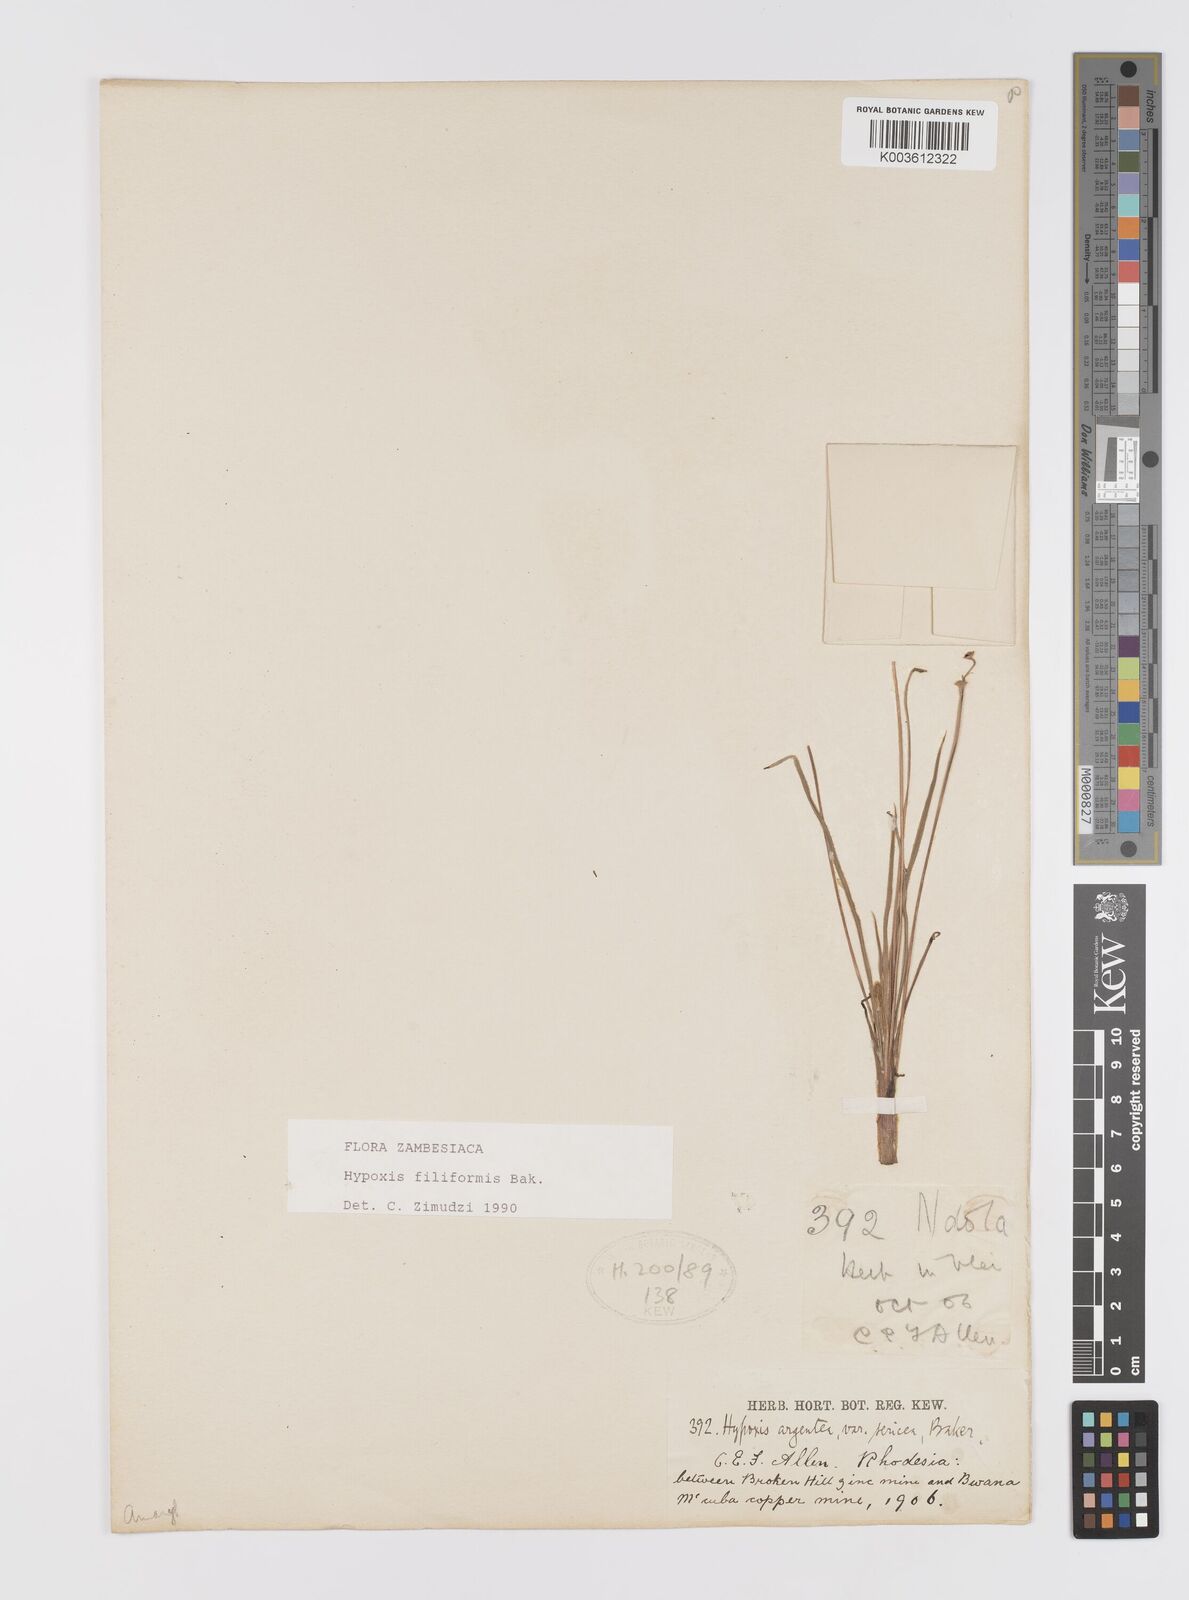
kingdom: Plantae
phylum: Tracheophyta
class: Liliopsida
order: Asparagales
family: Hypoxidaceae
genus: Hypoxis
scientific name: Hypoxis filiformis
